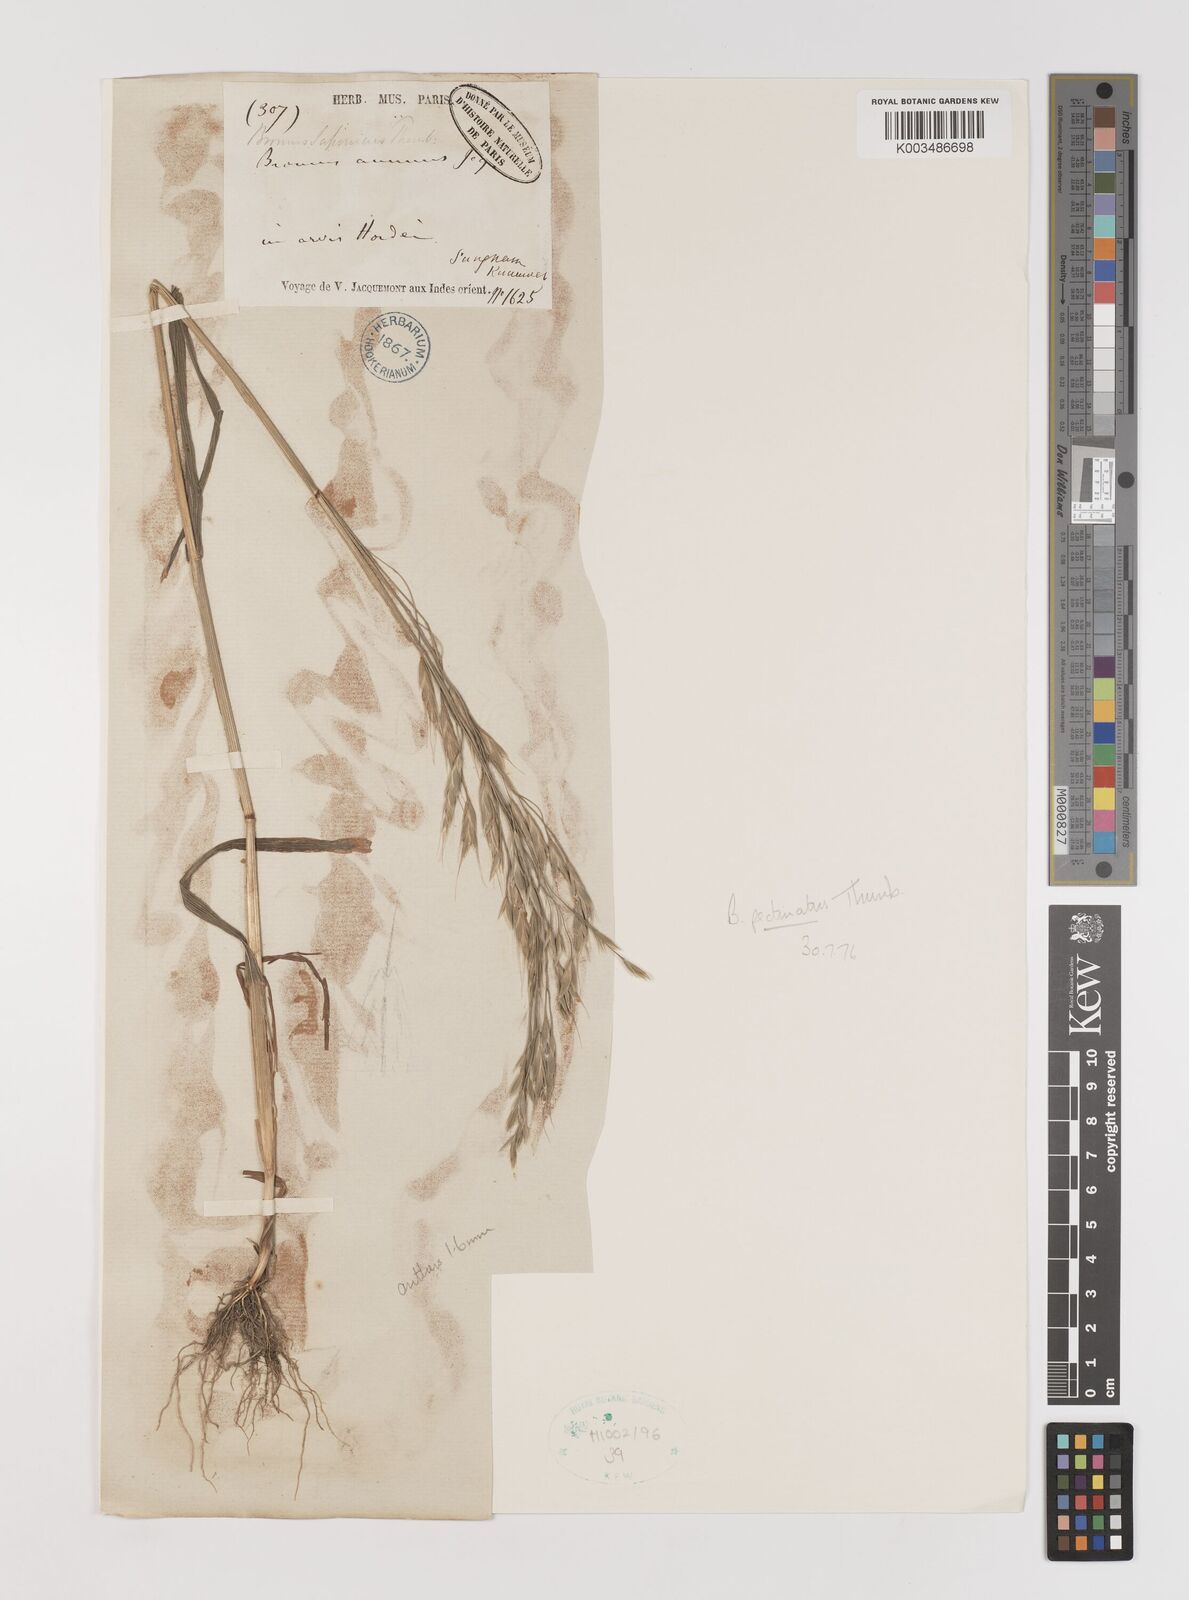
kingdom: Plantae
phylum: Tracheophyta
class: Liliopsida
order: Poales
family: Poaceae
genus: Bromus
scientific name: Bromus pectinatus
